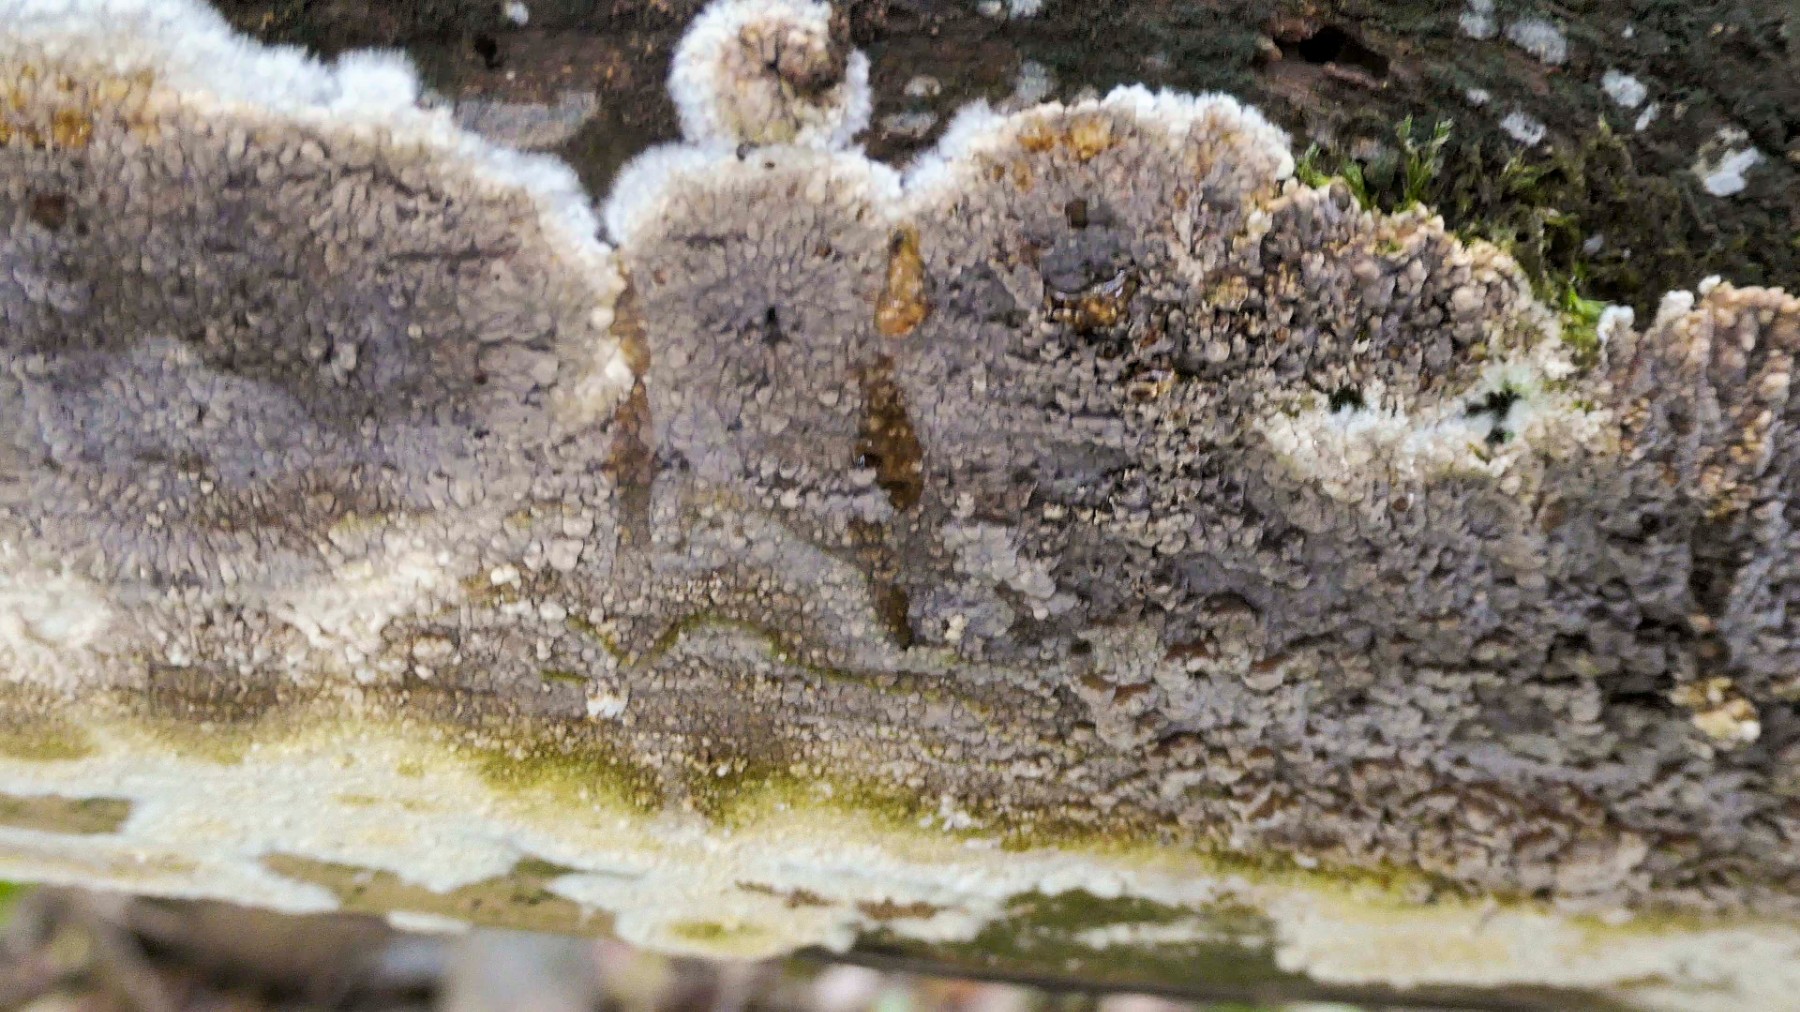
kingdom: Fungi
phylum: Basidiomycota
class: Agaricomycetes
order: Boletales
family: Coniophoraceae
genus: Coniophora
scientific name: Coniophora puteana
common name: gul tømmersvamp
